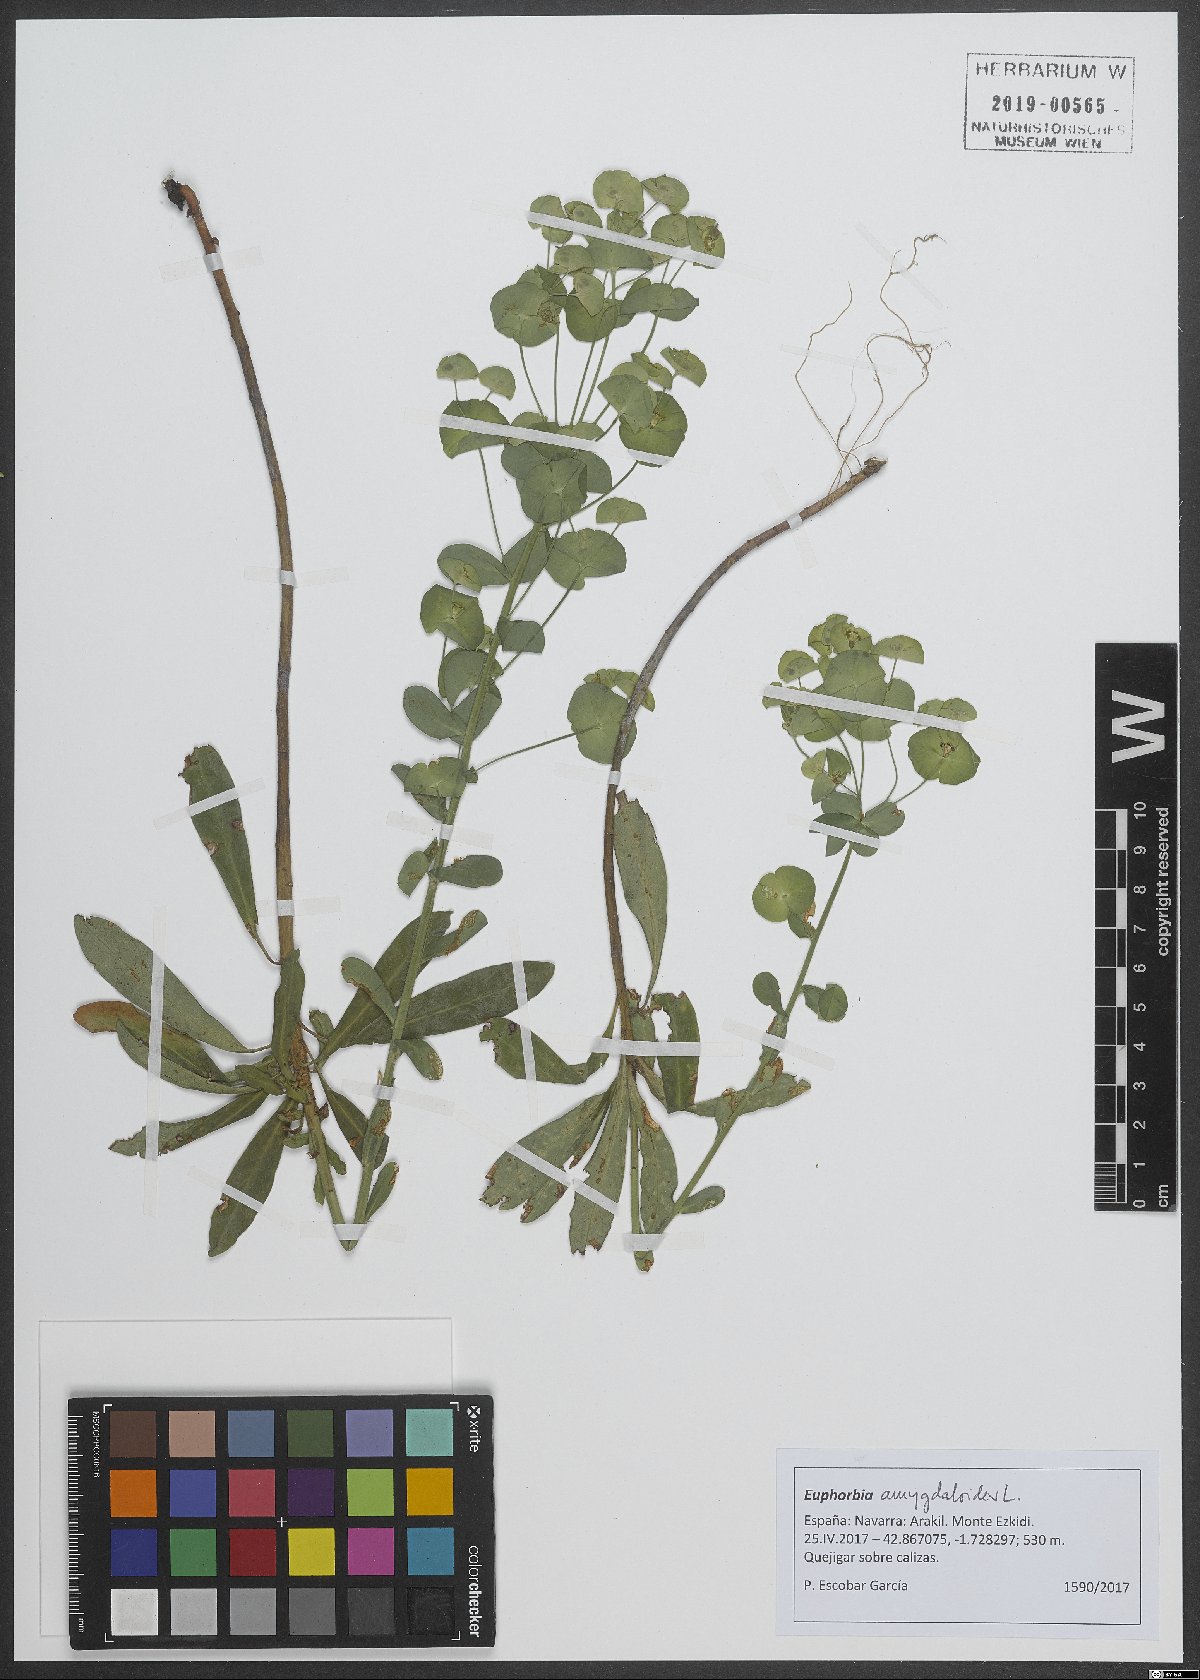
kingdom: Plantae
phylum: Tracheophyta
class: Magnoliopsida
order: Malpighiales
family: Euphorbiaceae
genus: Euphorbia
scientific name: Euphorbia amygdaloides
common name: Wood spurge
